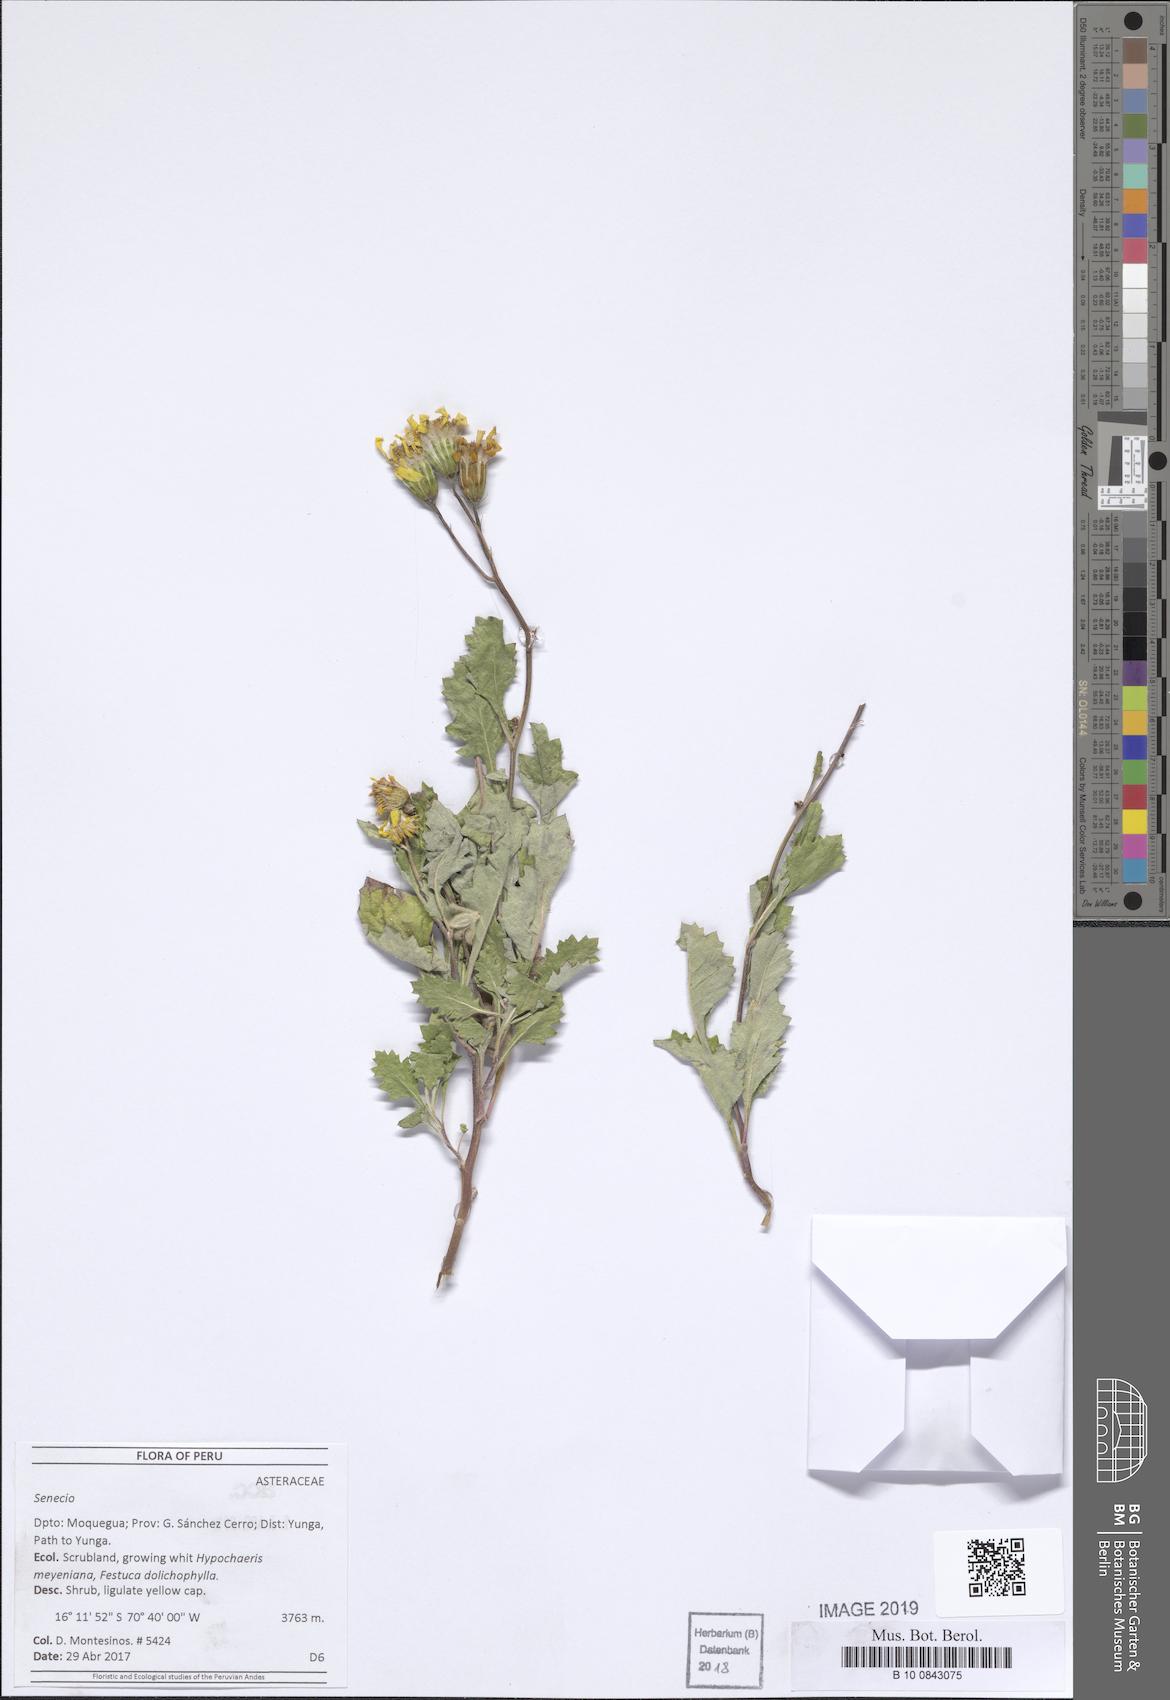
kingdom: Plantae
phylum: Tracheophyta
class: Magnoliopsida
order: Asterales
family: Asteraceae
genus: Lomanthus
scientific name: Lomanthus tovarii
